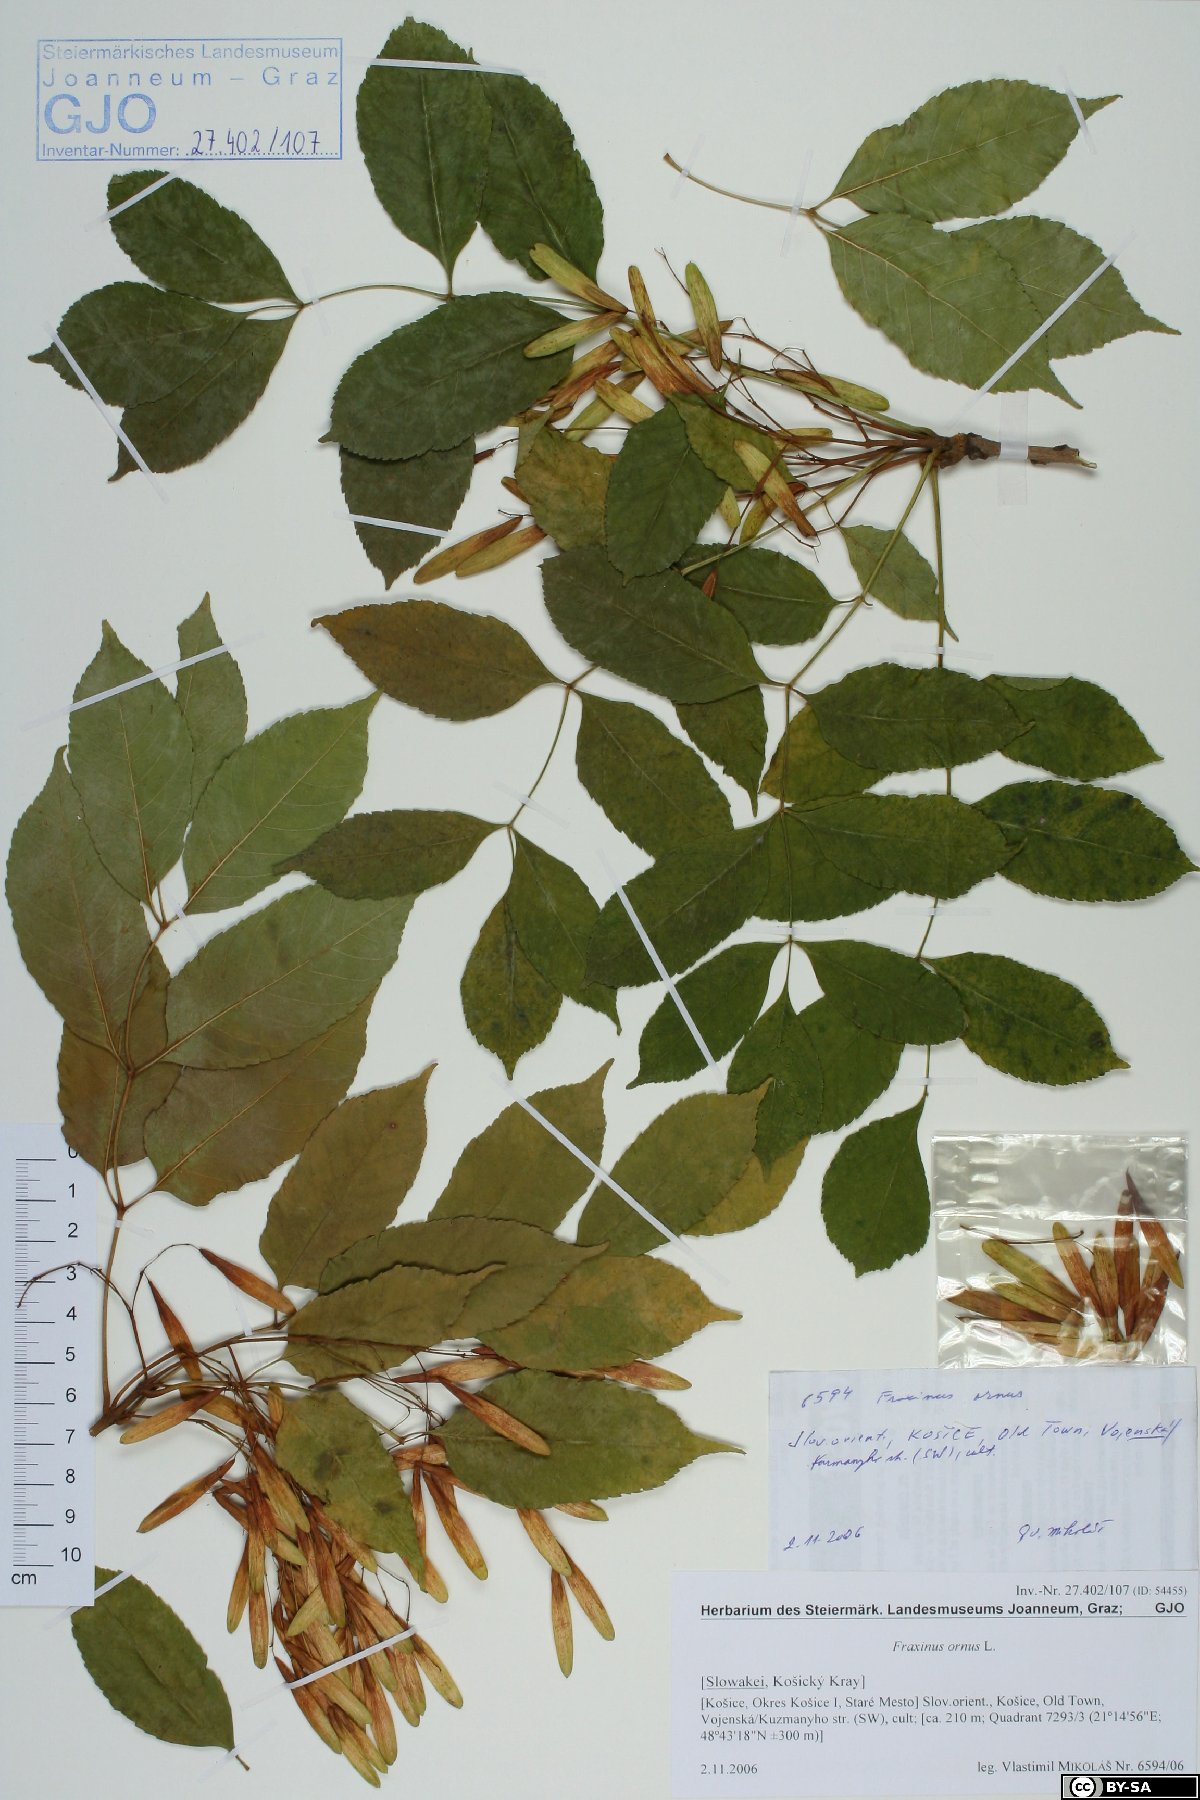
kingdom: Plantae
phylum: Tracheophyta
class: Magnoliopsida
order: Lamiales
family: Oleaceae
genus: Fraxinus
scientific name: Fraxinus ornus
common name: Manna ash
